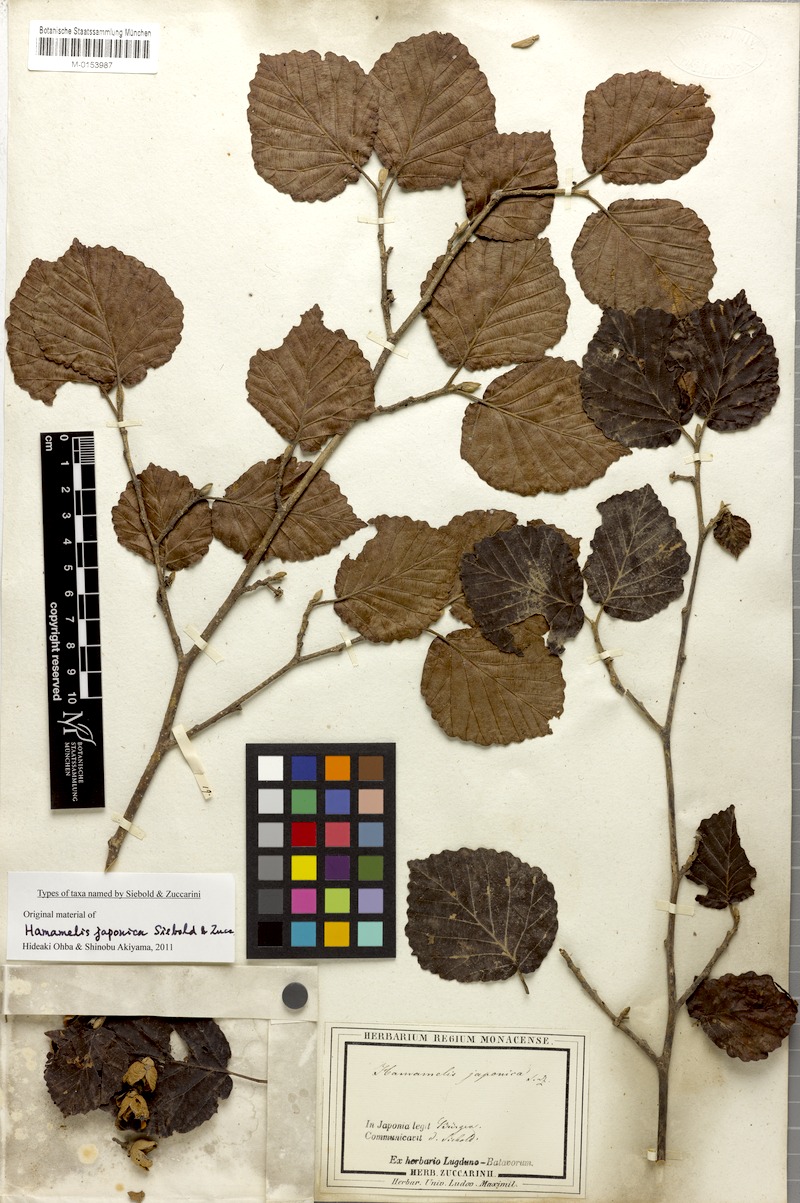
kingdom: Plantae
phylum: Tracheophyta
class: Magnoliopsida
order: Saxifragales
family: Hamamelidaceae
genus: Hamamelis
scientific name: Hamamelis japonica
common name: Japanese witch-hazel
